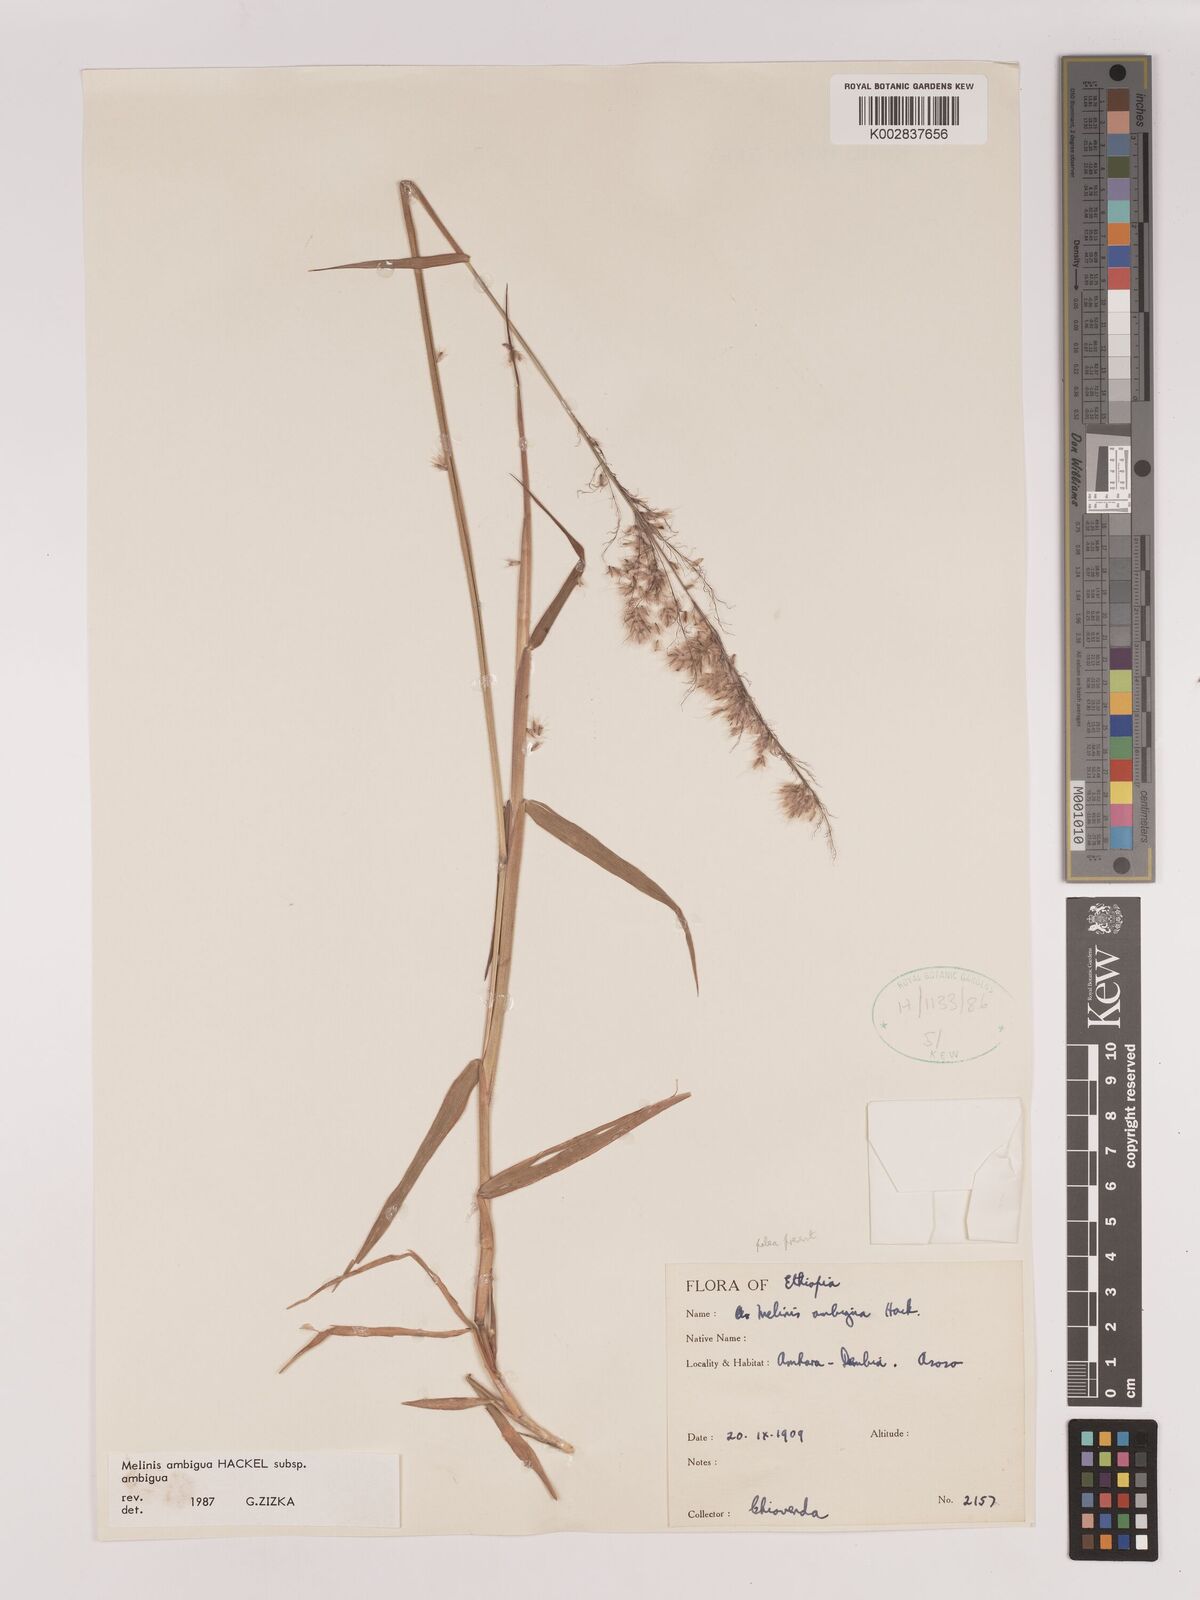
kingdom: Plantae
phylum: Tracheophyta
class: Liliopsida
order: Poales
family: Poaceae
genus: Melinis
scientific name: Melinis ambigua
